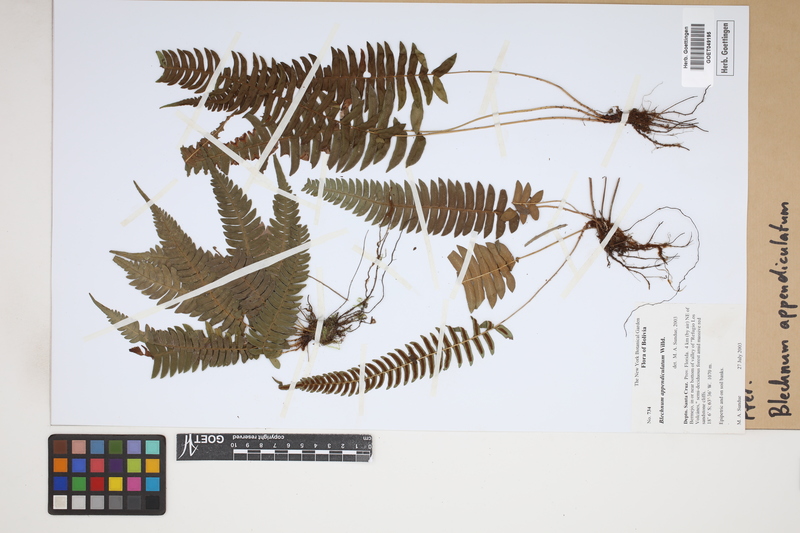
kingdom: Plantae
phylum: Tracheophyta
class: Polypodiopsida
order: Polypodiales
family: Blechnaceae
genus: Blechnum
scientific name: Blechnum appendiculatum
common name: Palm fern
